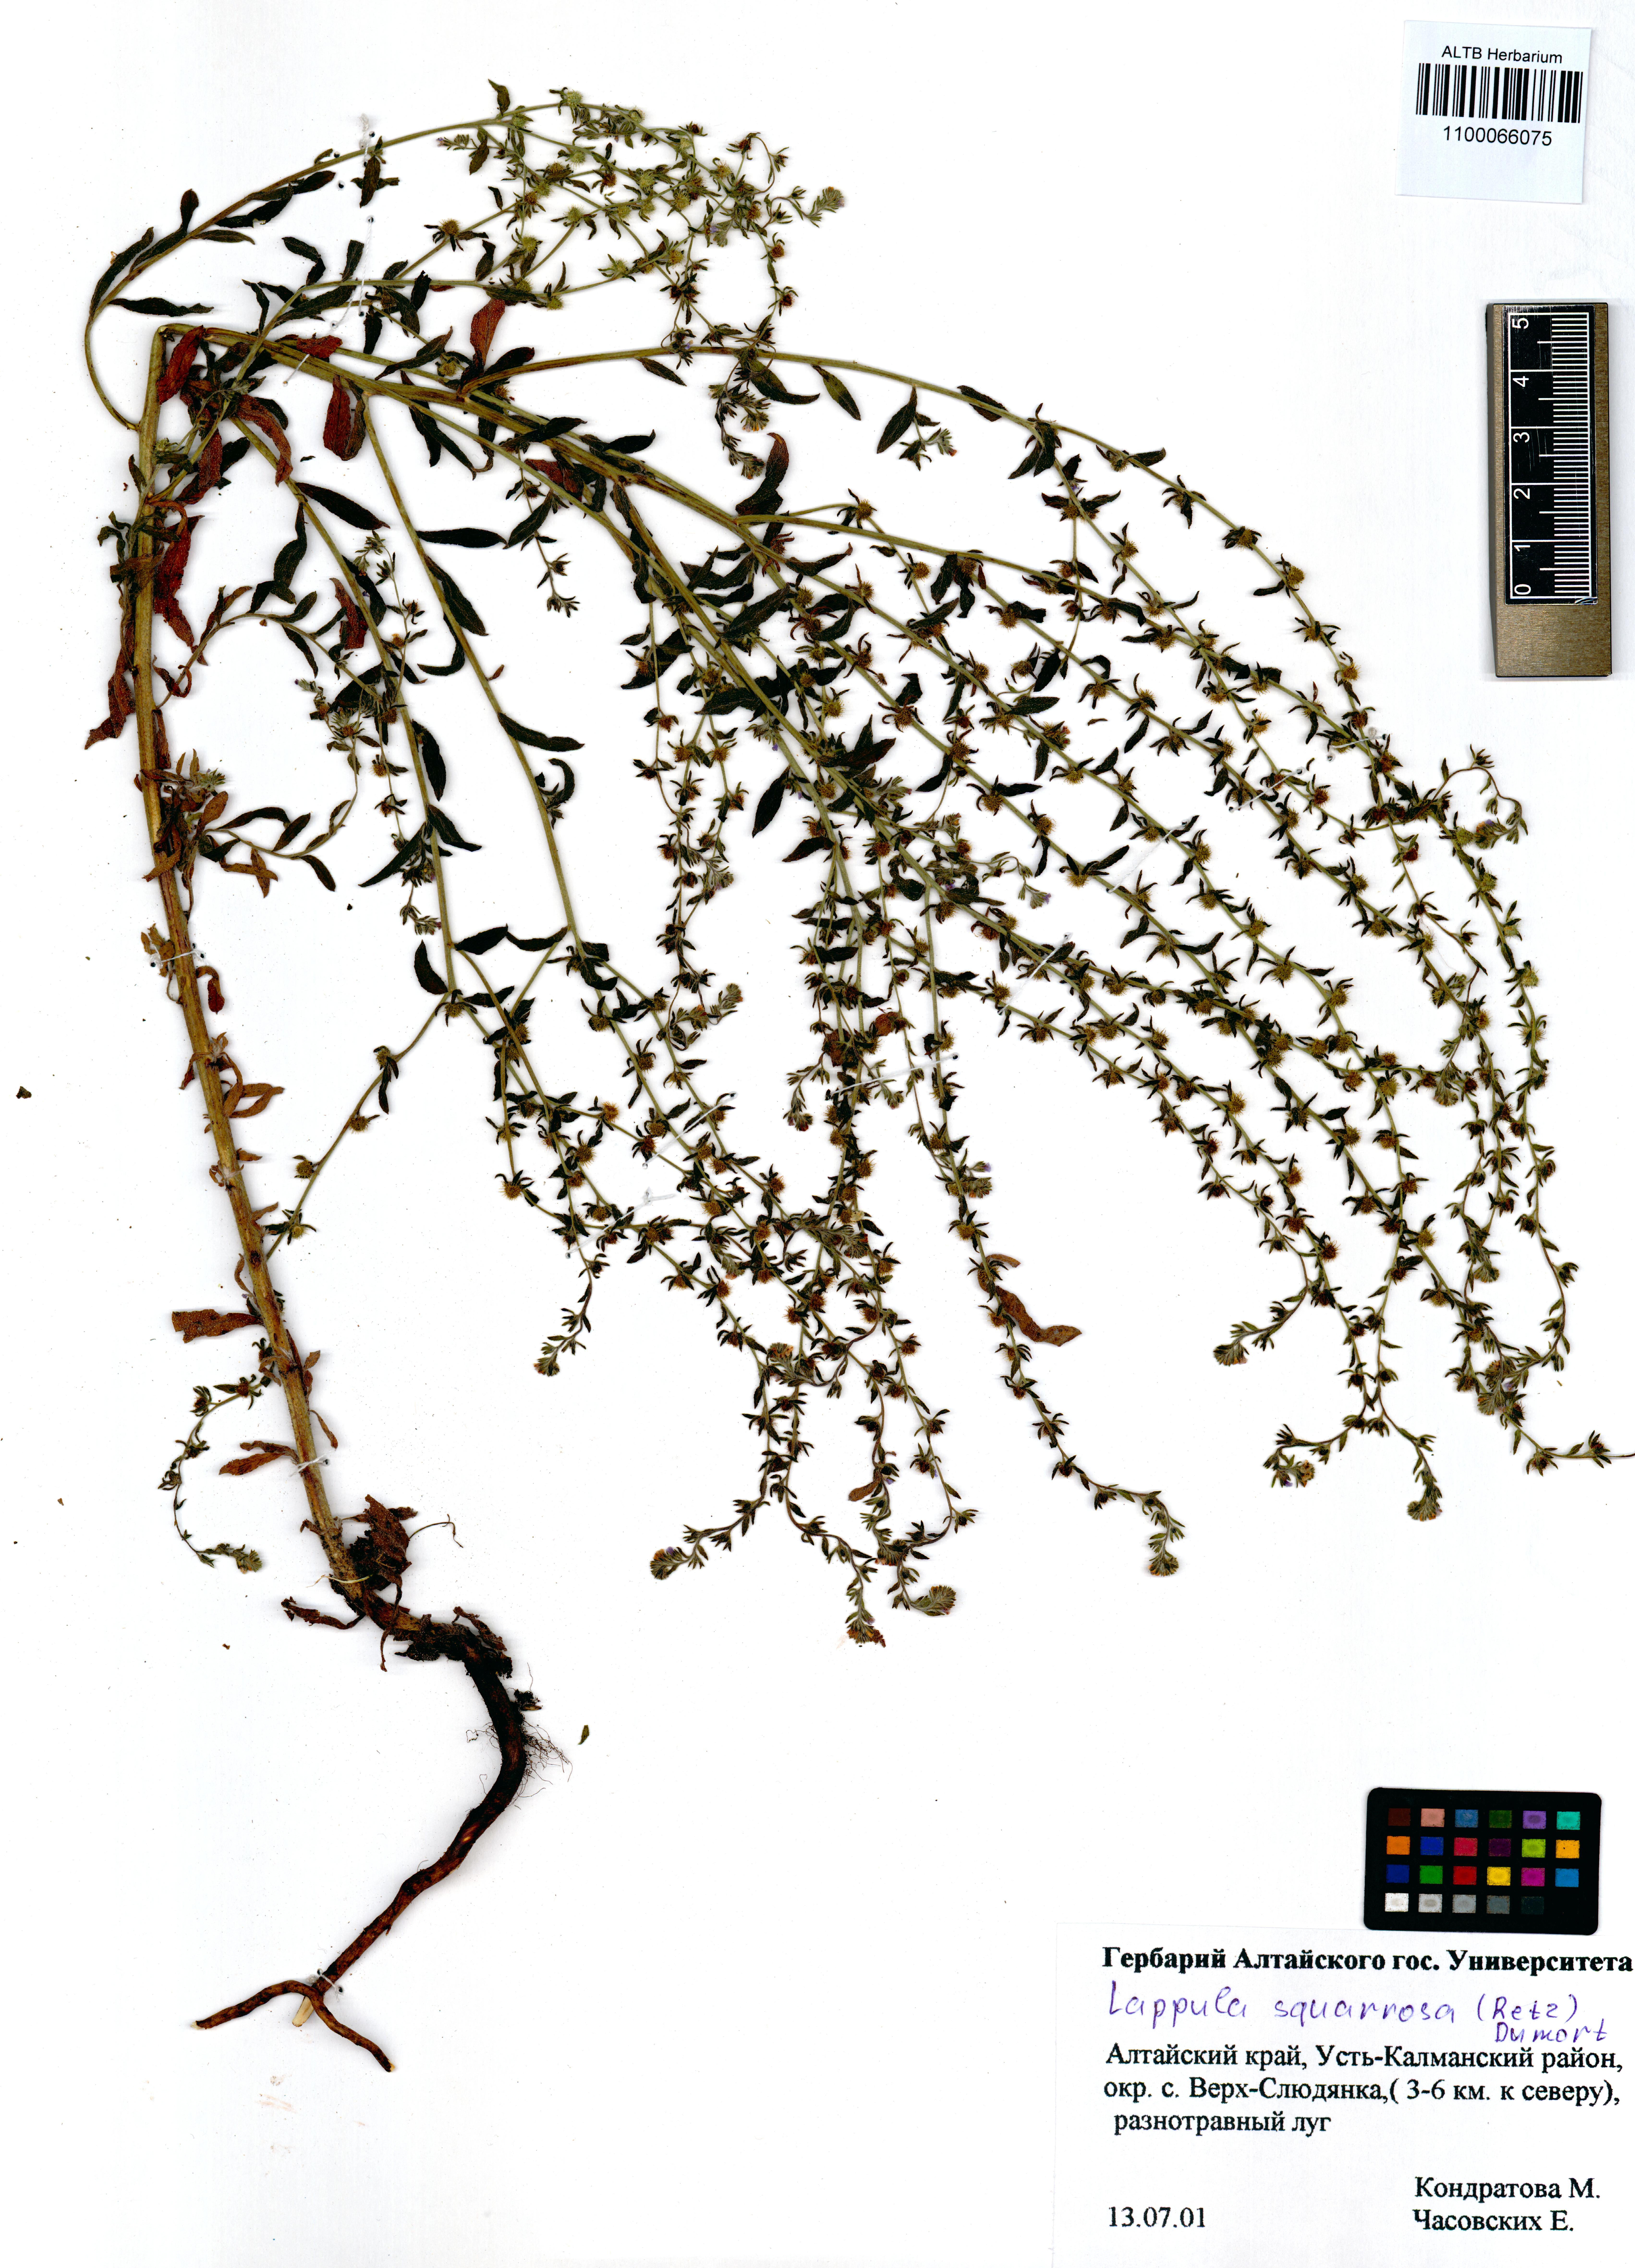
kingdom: Plantae
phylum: Tracheophyta
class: Magnoliopsida
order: Boraginales
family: Boraginaceae
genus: Lappula
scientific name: Lappula squarrosa
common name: European stickseed
